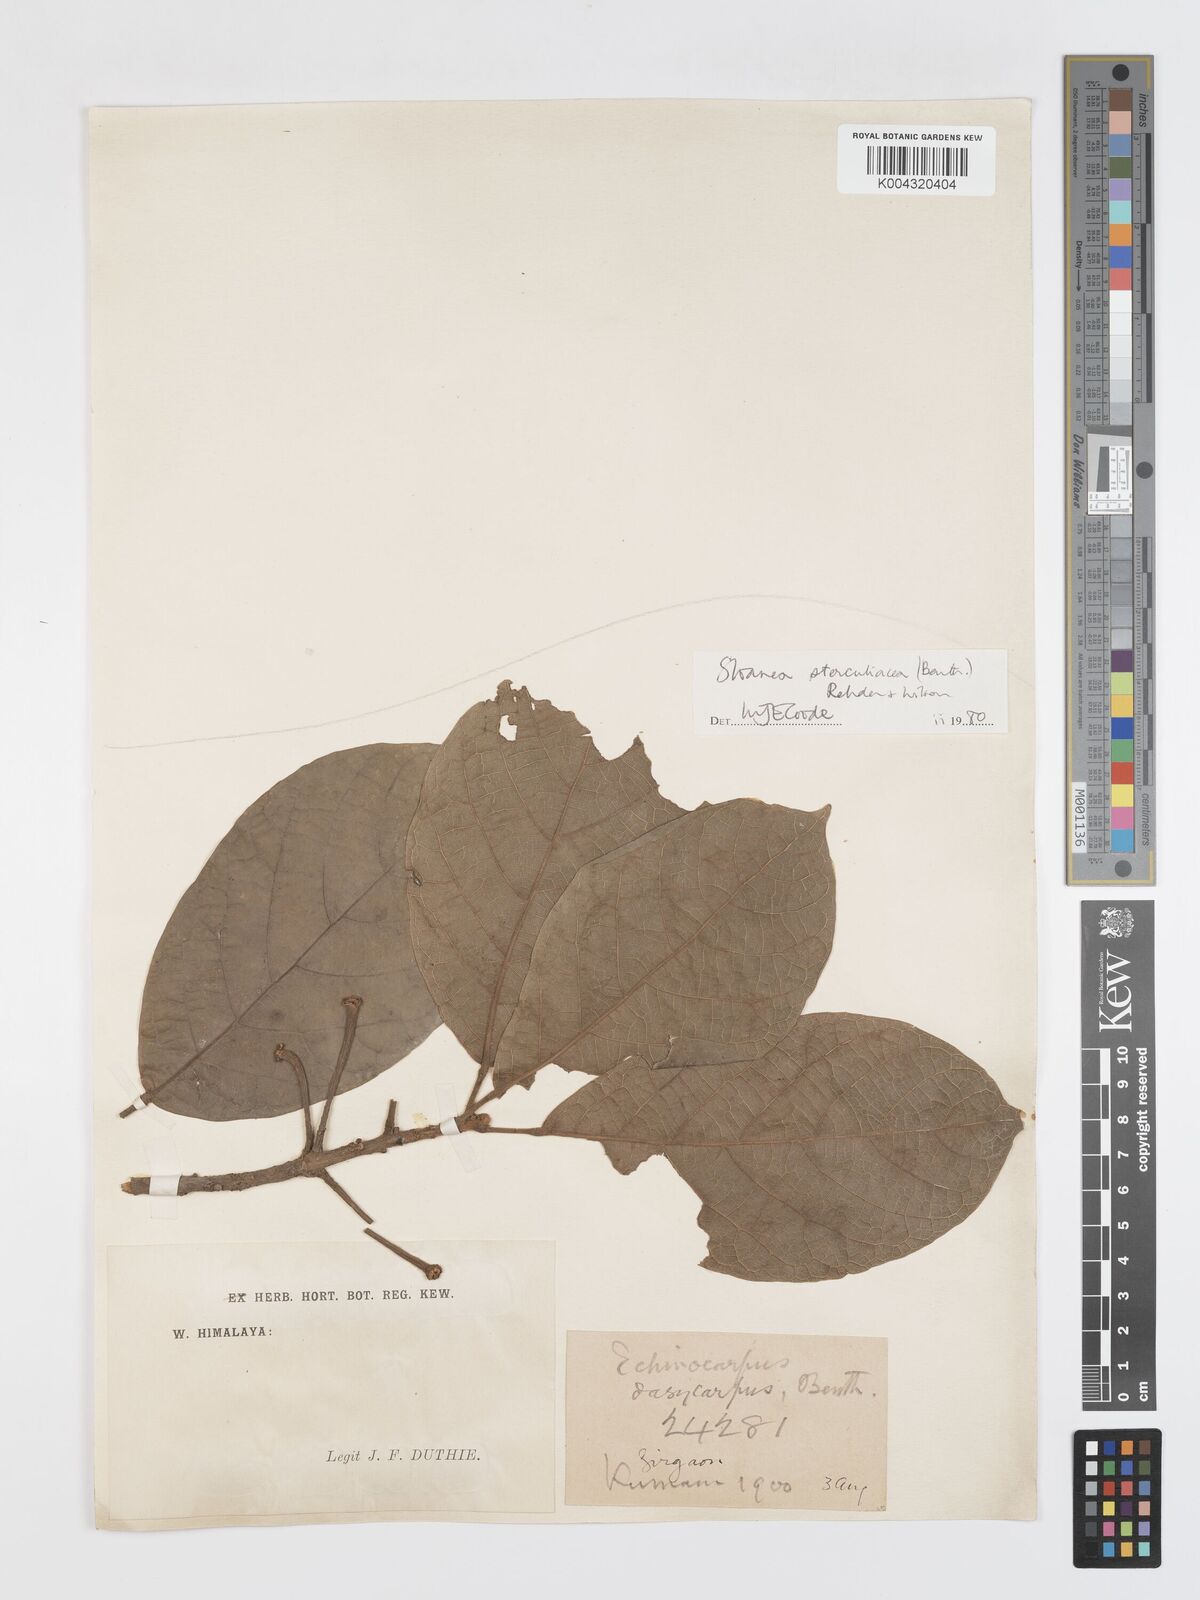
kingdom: Plantae
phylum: Tracheophyta
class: Magnoliopsida
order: Oxalidales
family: Elaeocarpaceae
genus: Sloanea
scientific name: Sloanea sterculiacea
